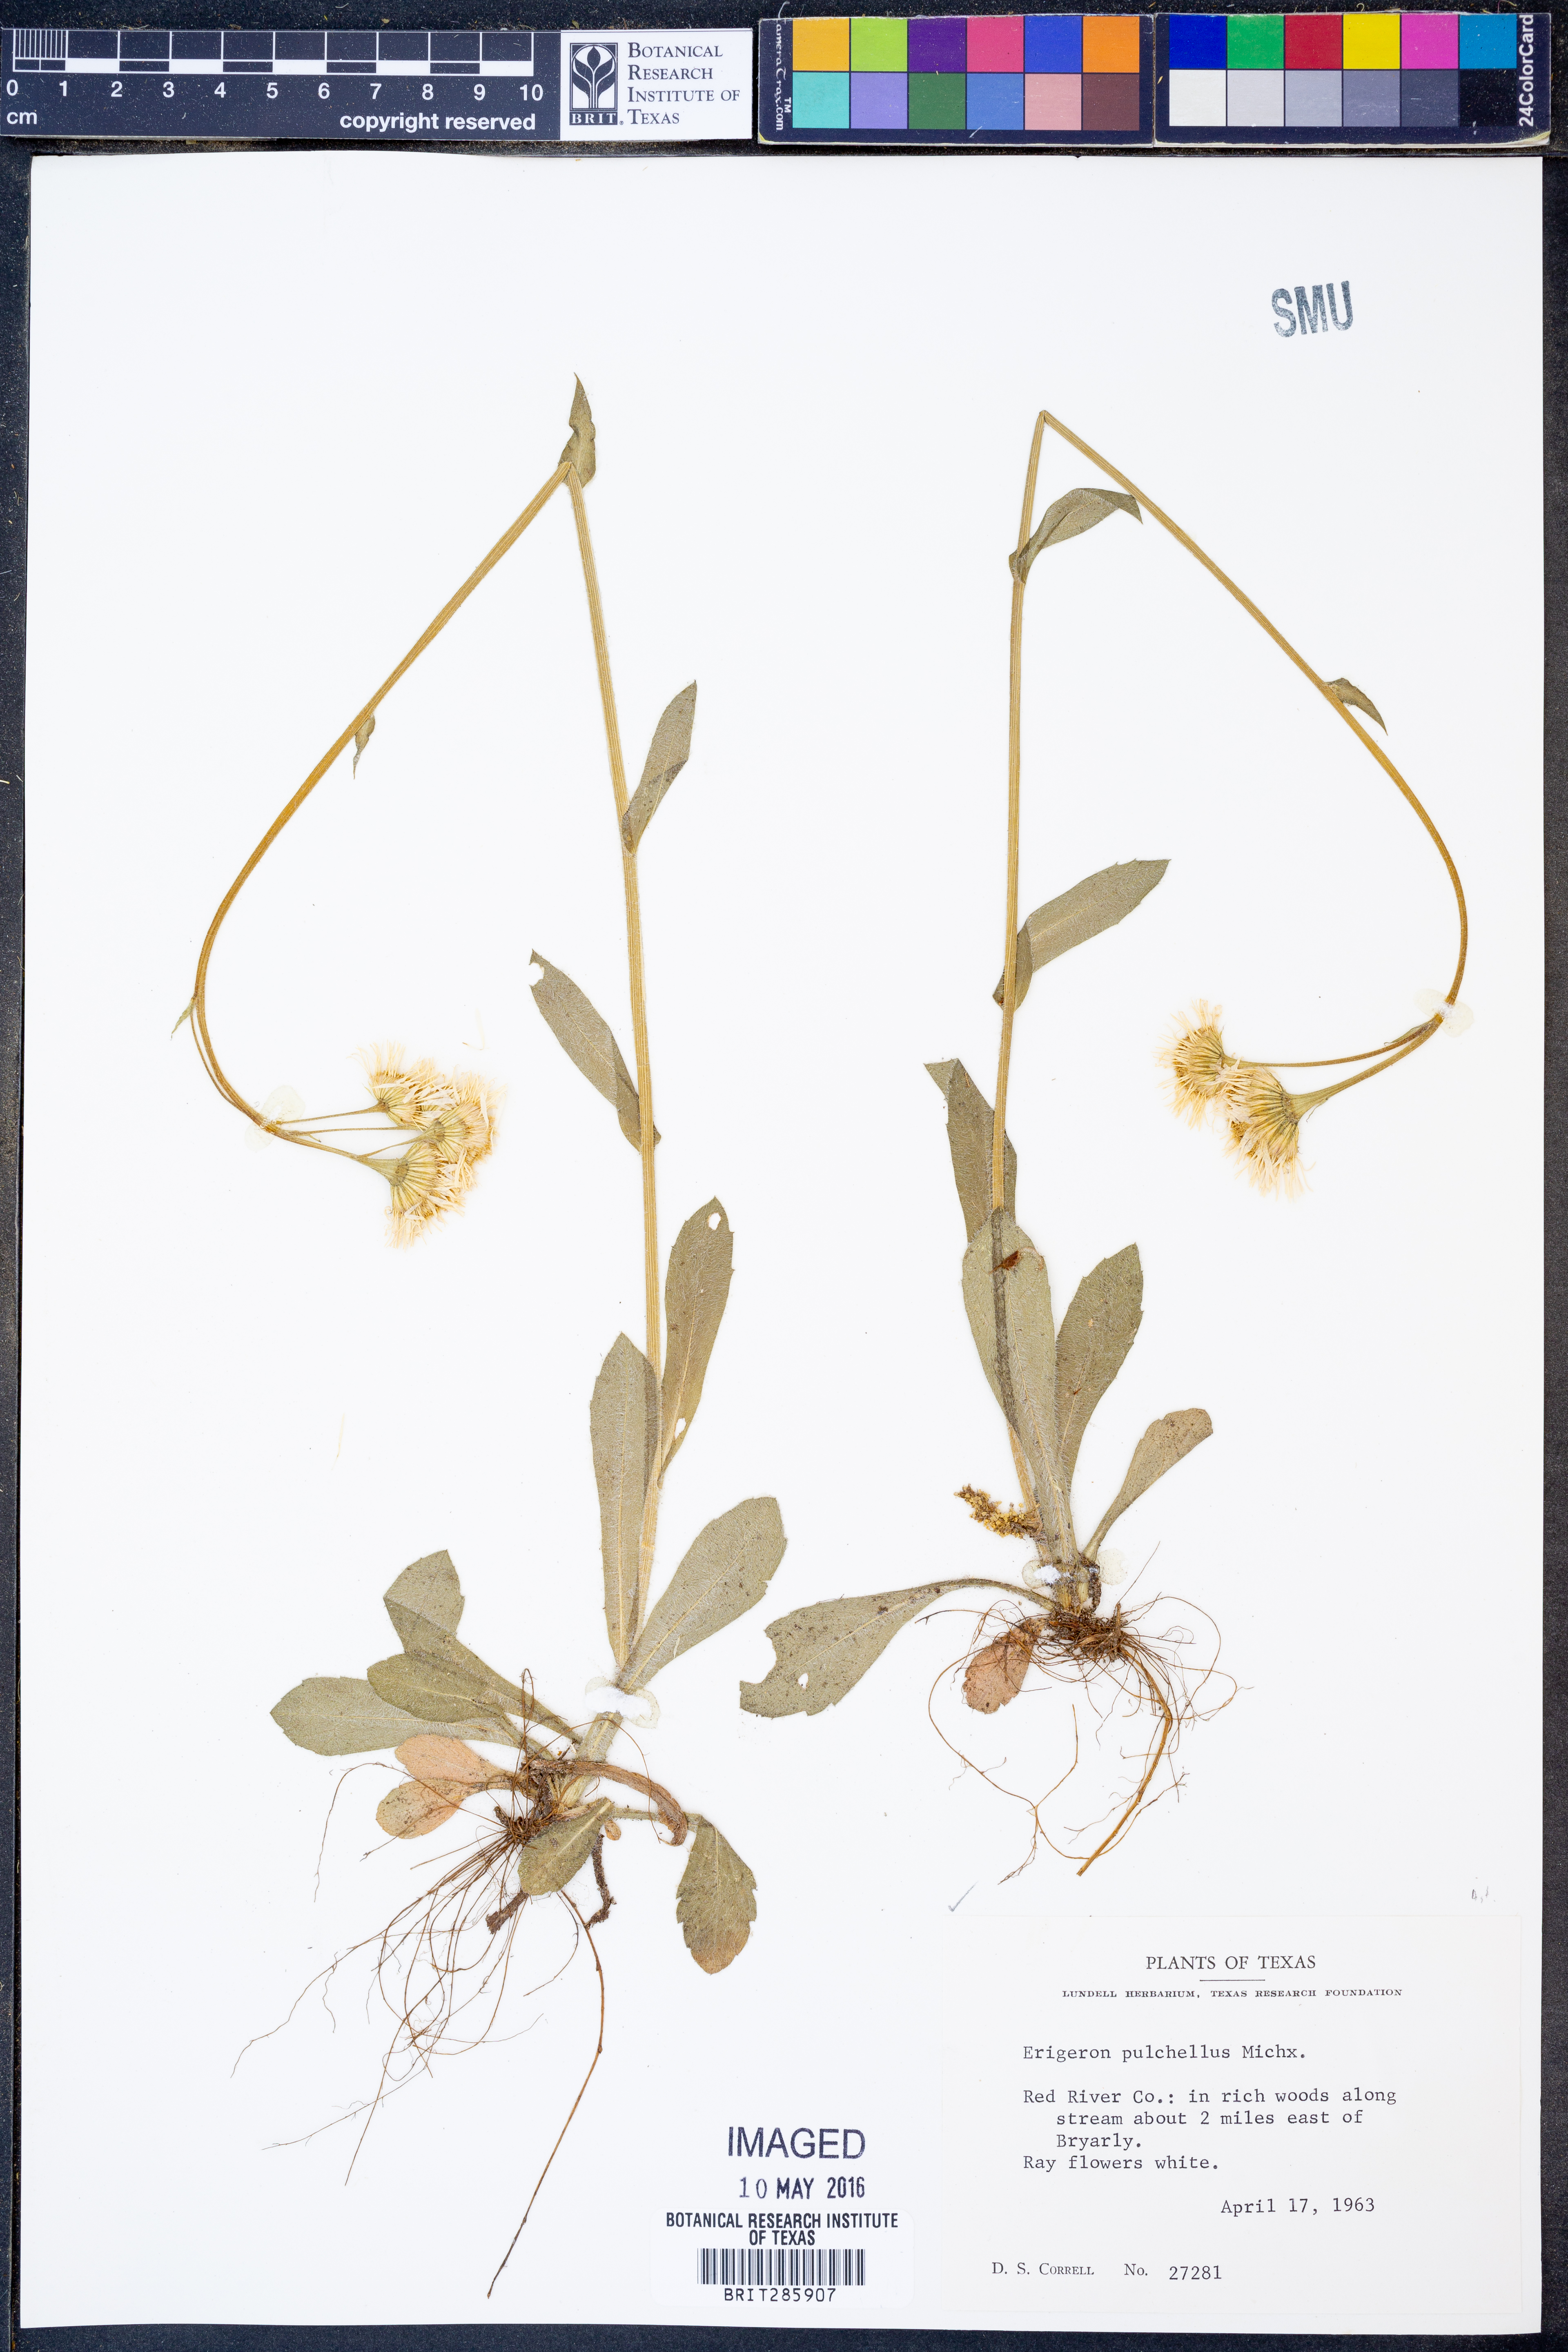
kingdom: Plantae
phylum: Tracheophyta
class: Magnoliopsida
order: Asterales
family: Asteraceae
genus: Erigeron
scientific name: Erigeron pulchellus
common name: Hairy fleabane
